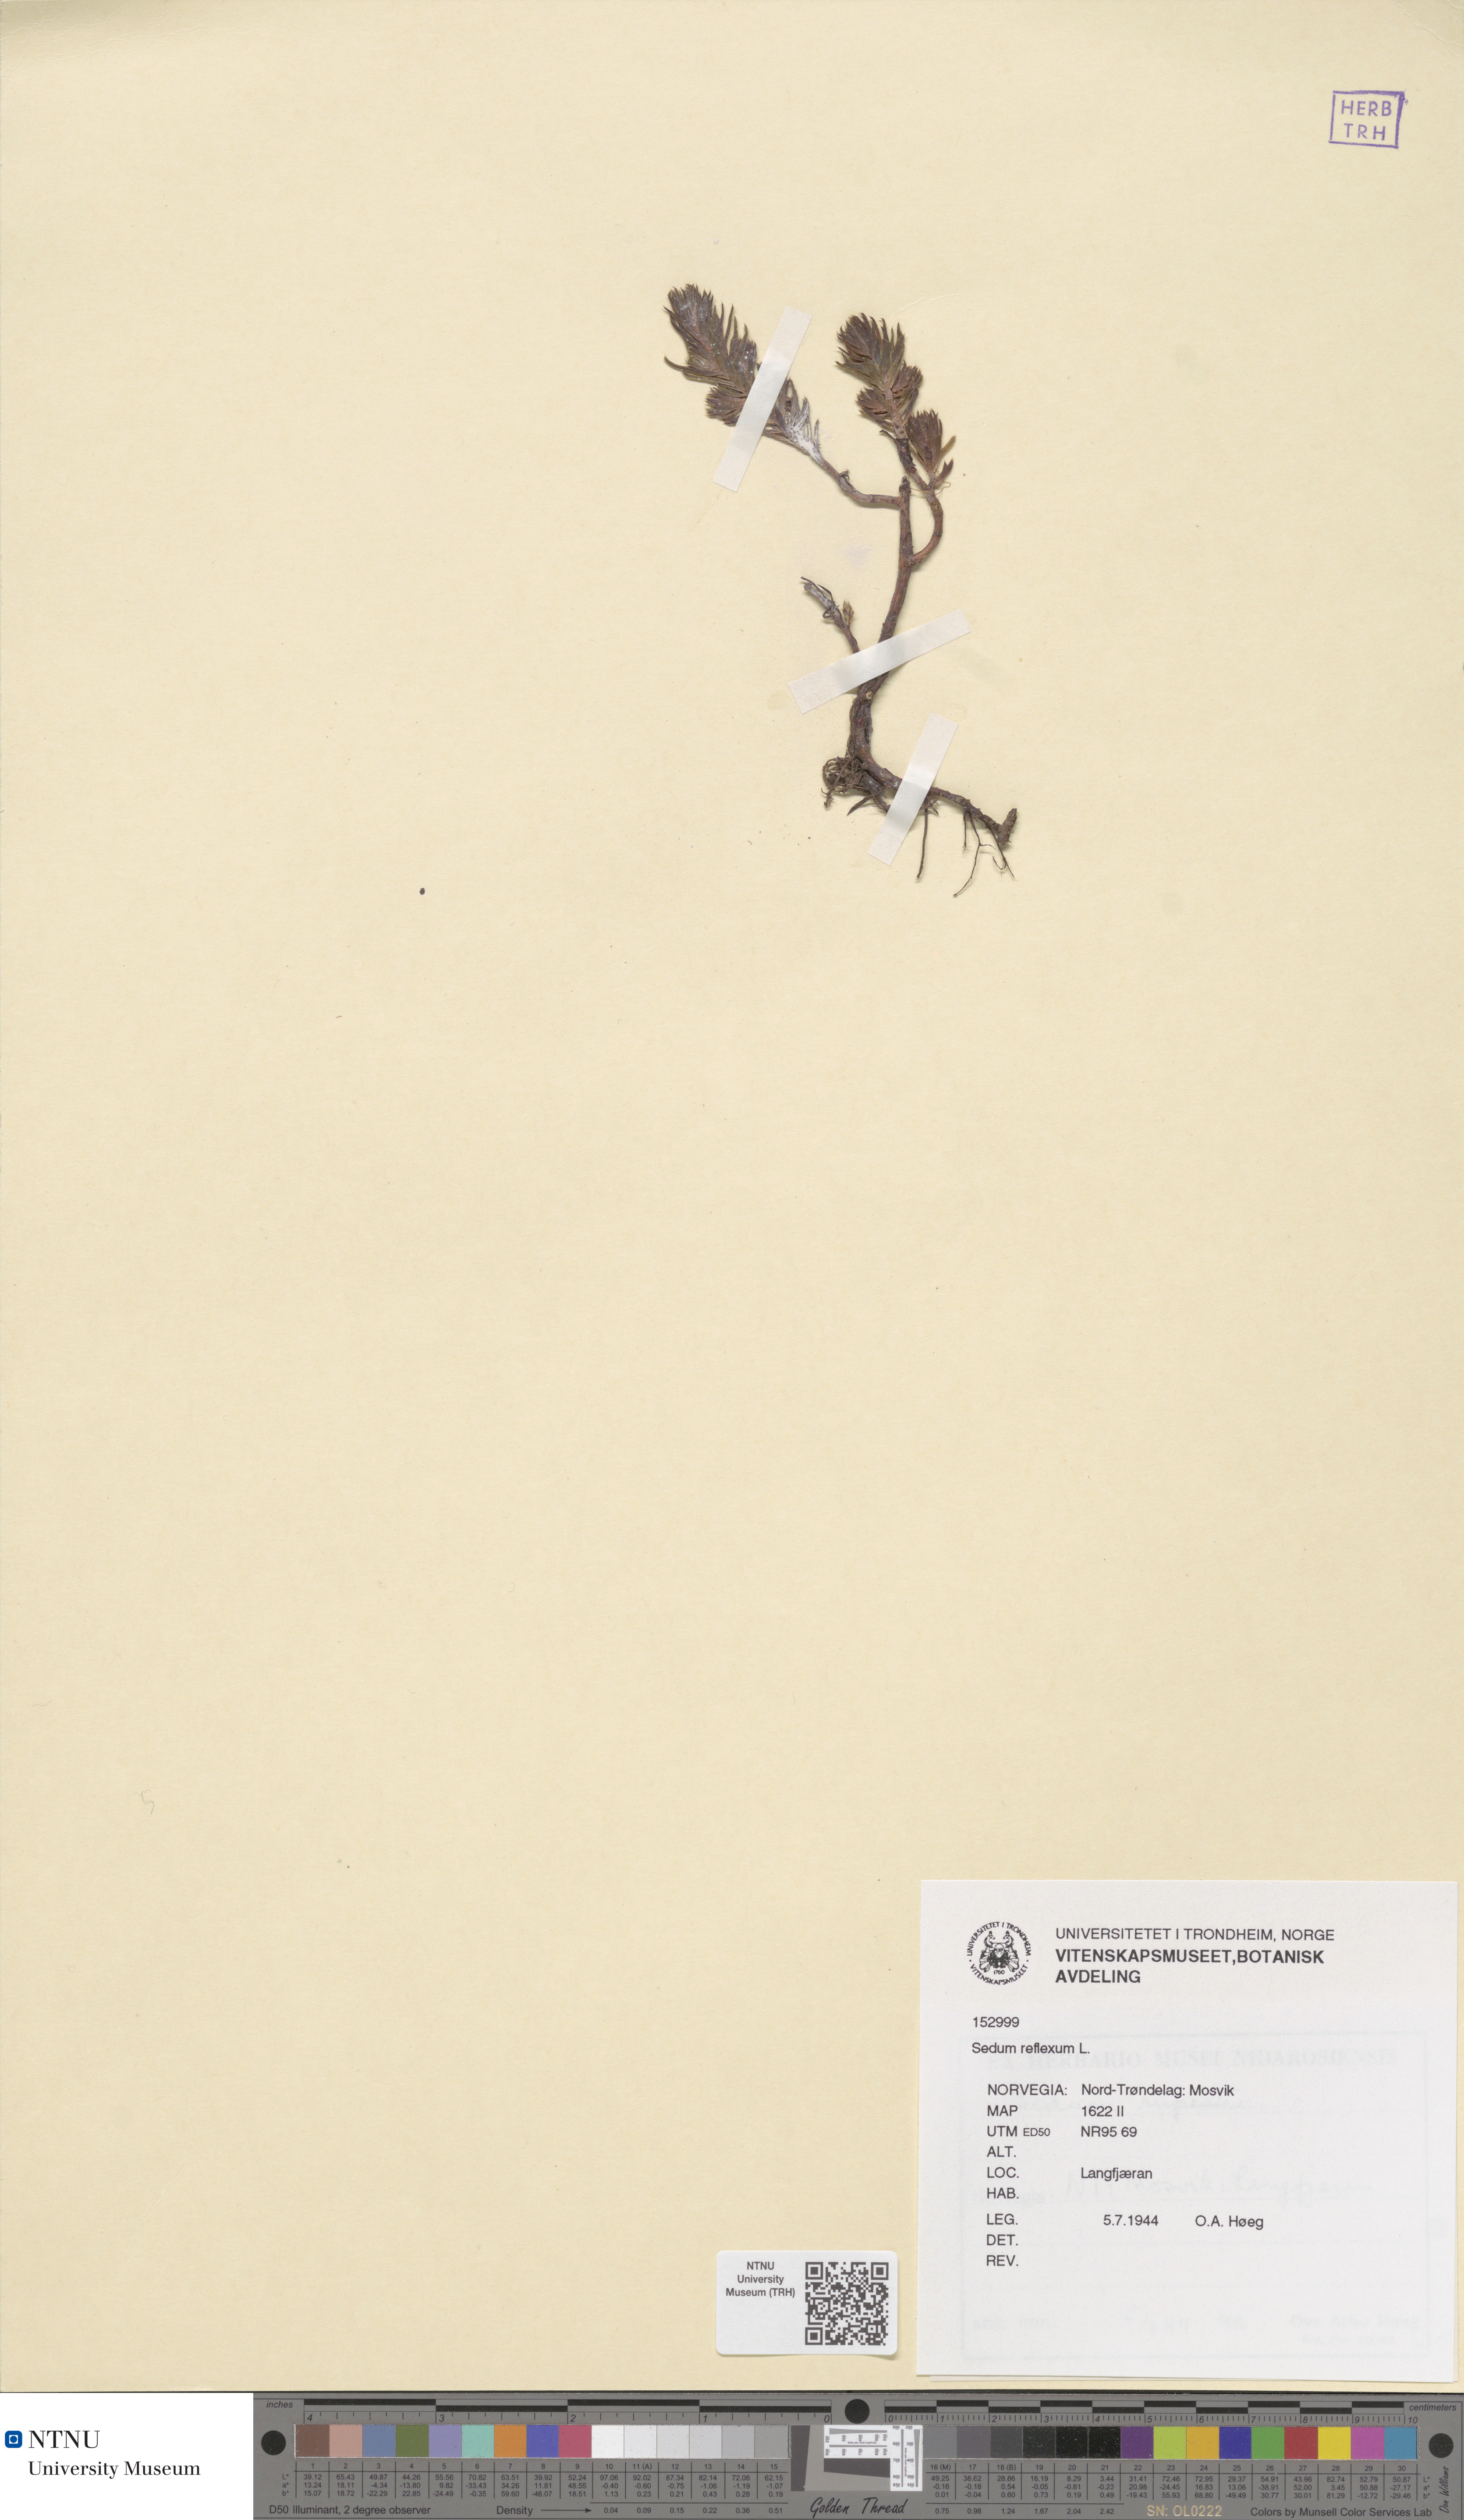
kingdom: Plantae
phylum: Tracheophyta
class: Magnoliopsida
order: Saxifragales
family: Crassulaceae
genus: Petrosedum
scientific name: Petrosedum rupestre
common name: Jenny's stonecrop
